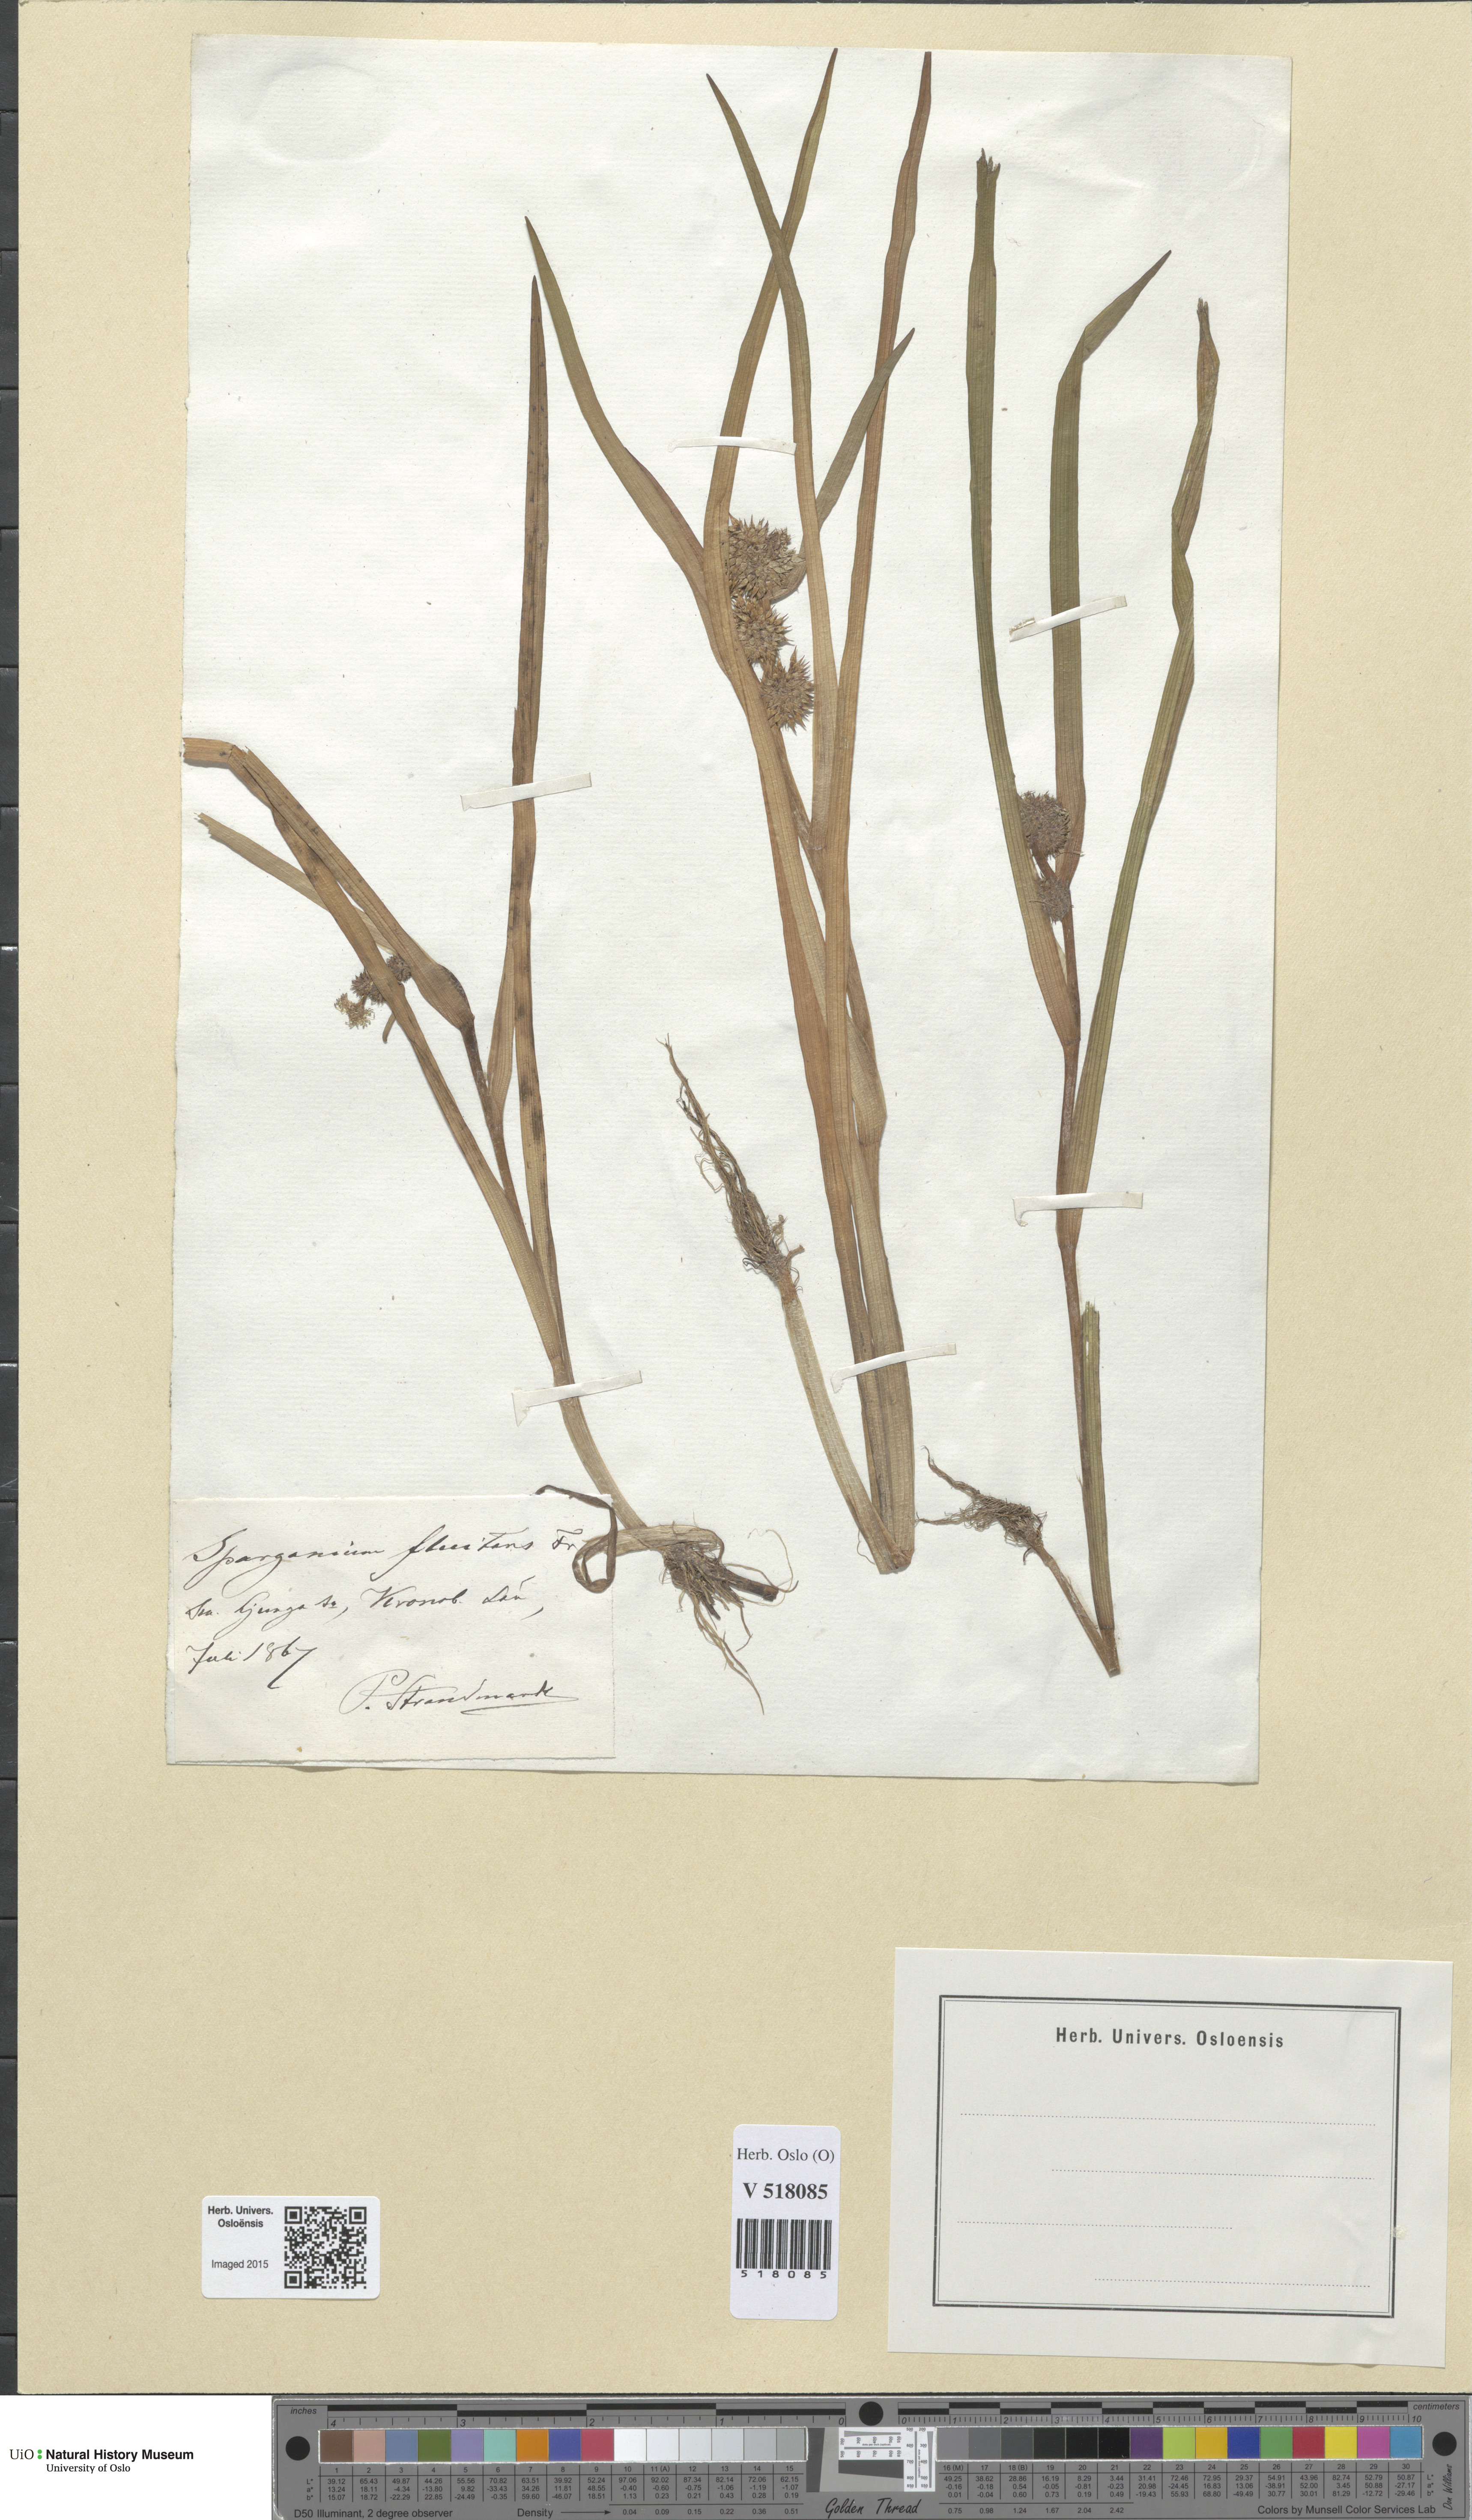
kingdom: Plantae
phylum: Tracheophyta
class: Liliopsida
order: Poales
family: Typhaceae
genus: Sparganium
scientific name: Sparganium angustifolium
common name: Floating bur-reed
